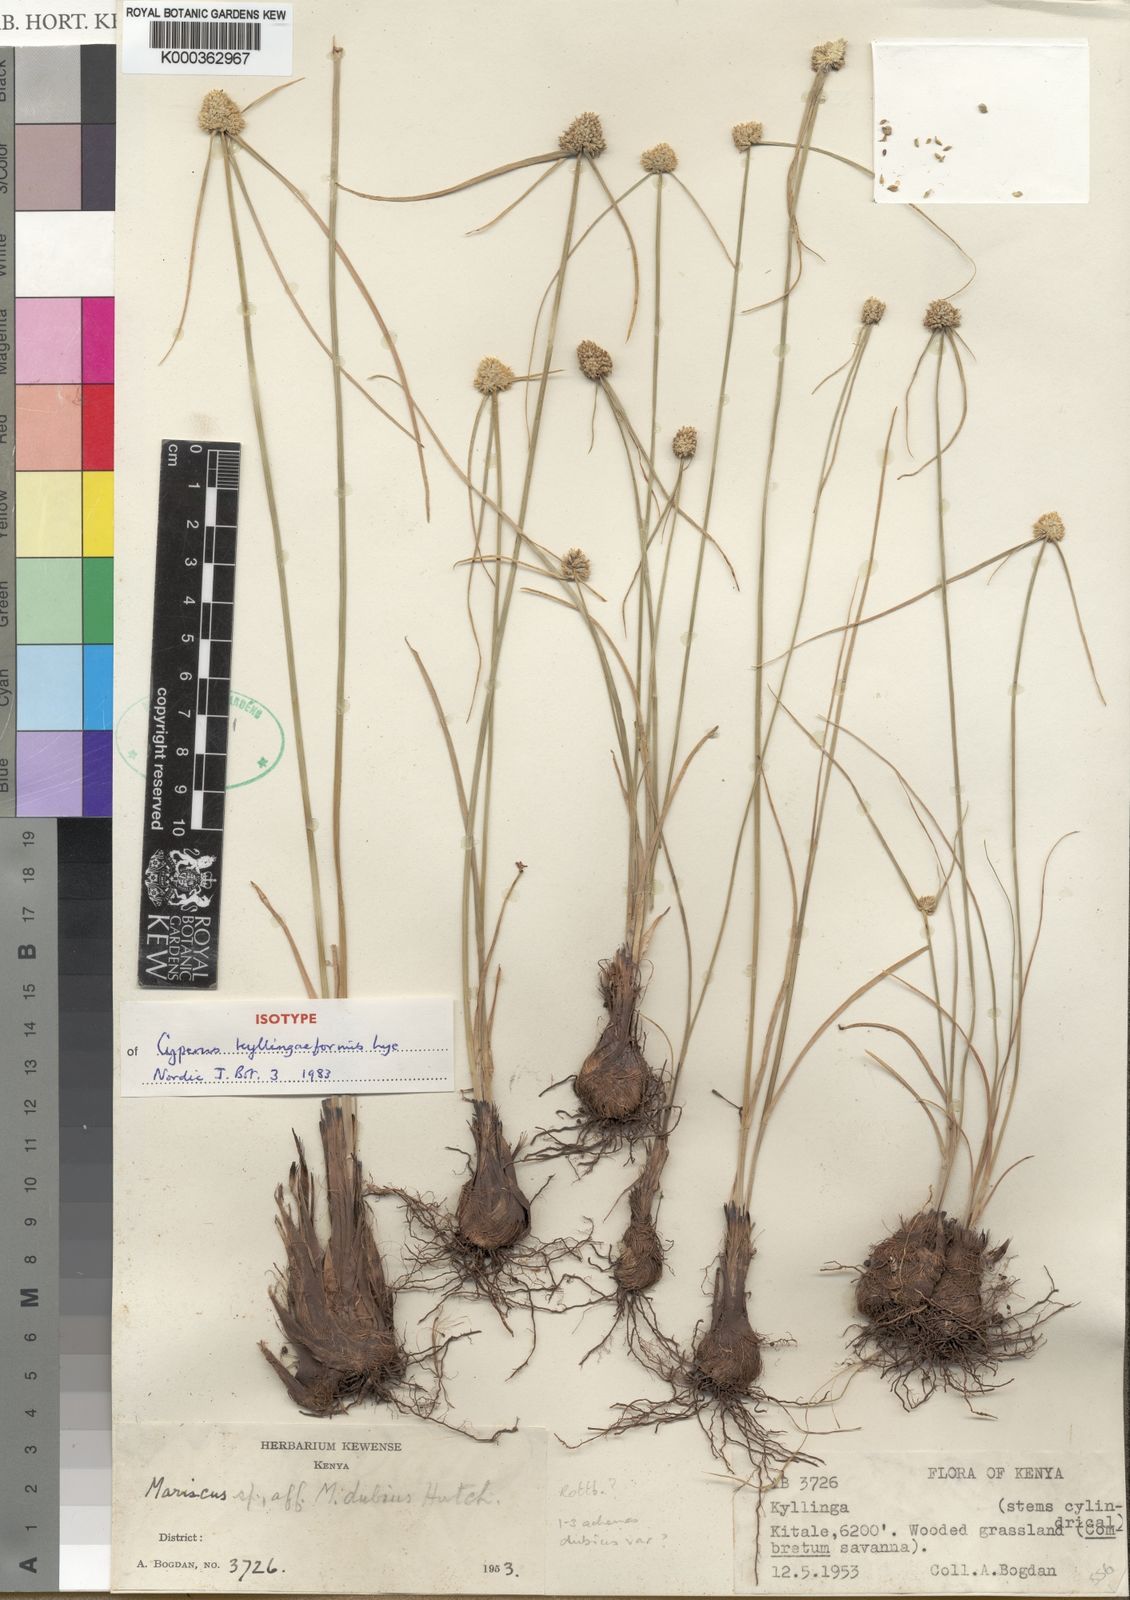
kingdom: Plantae
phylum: Tracheophyta
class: Liliopsida
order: Poales
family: Cyperaceae
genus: Cyperus
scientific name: Cyperus kyllingiformis
